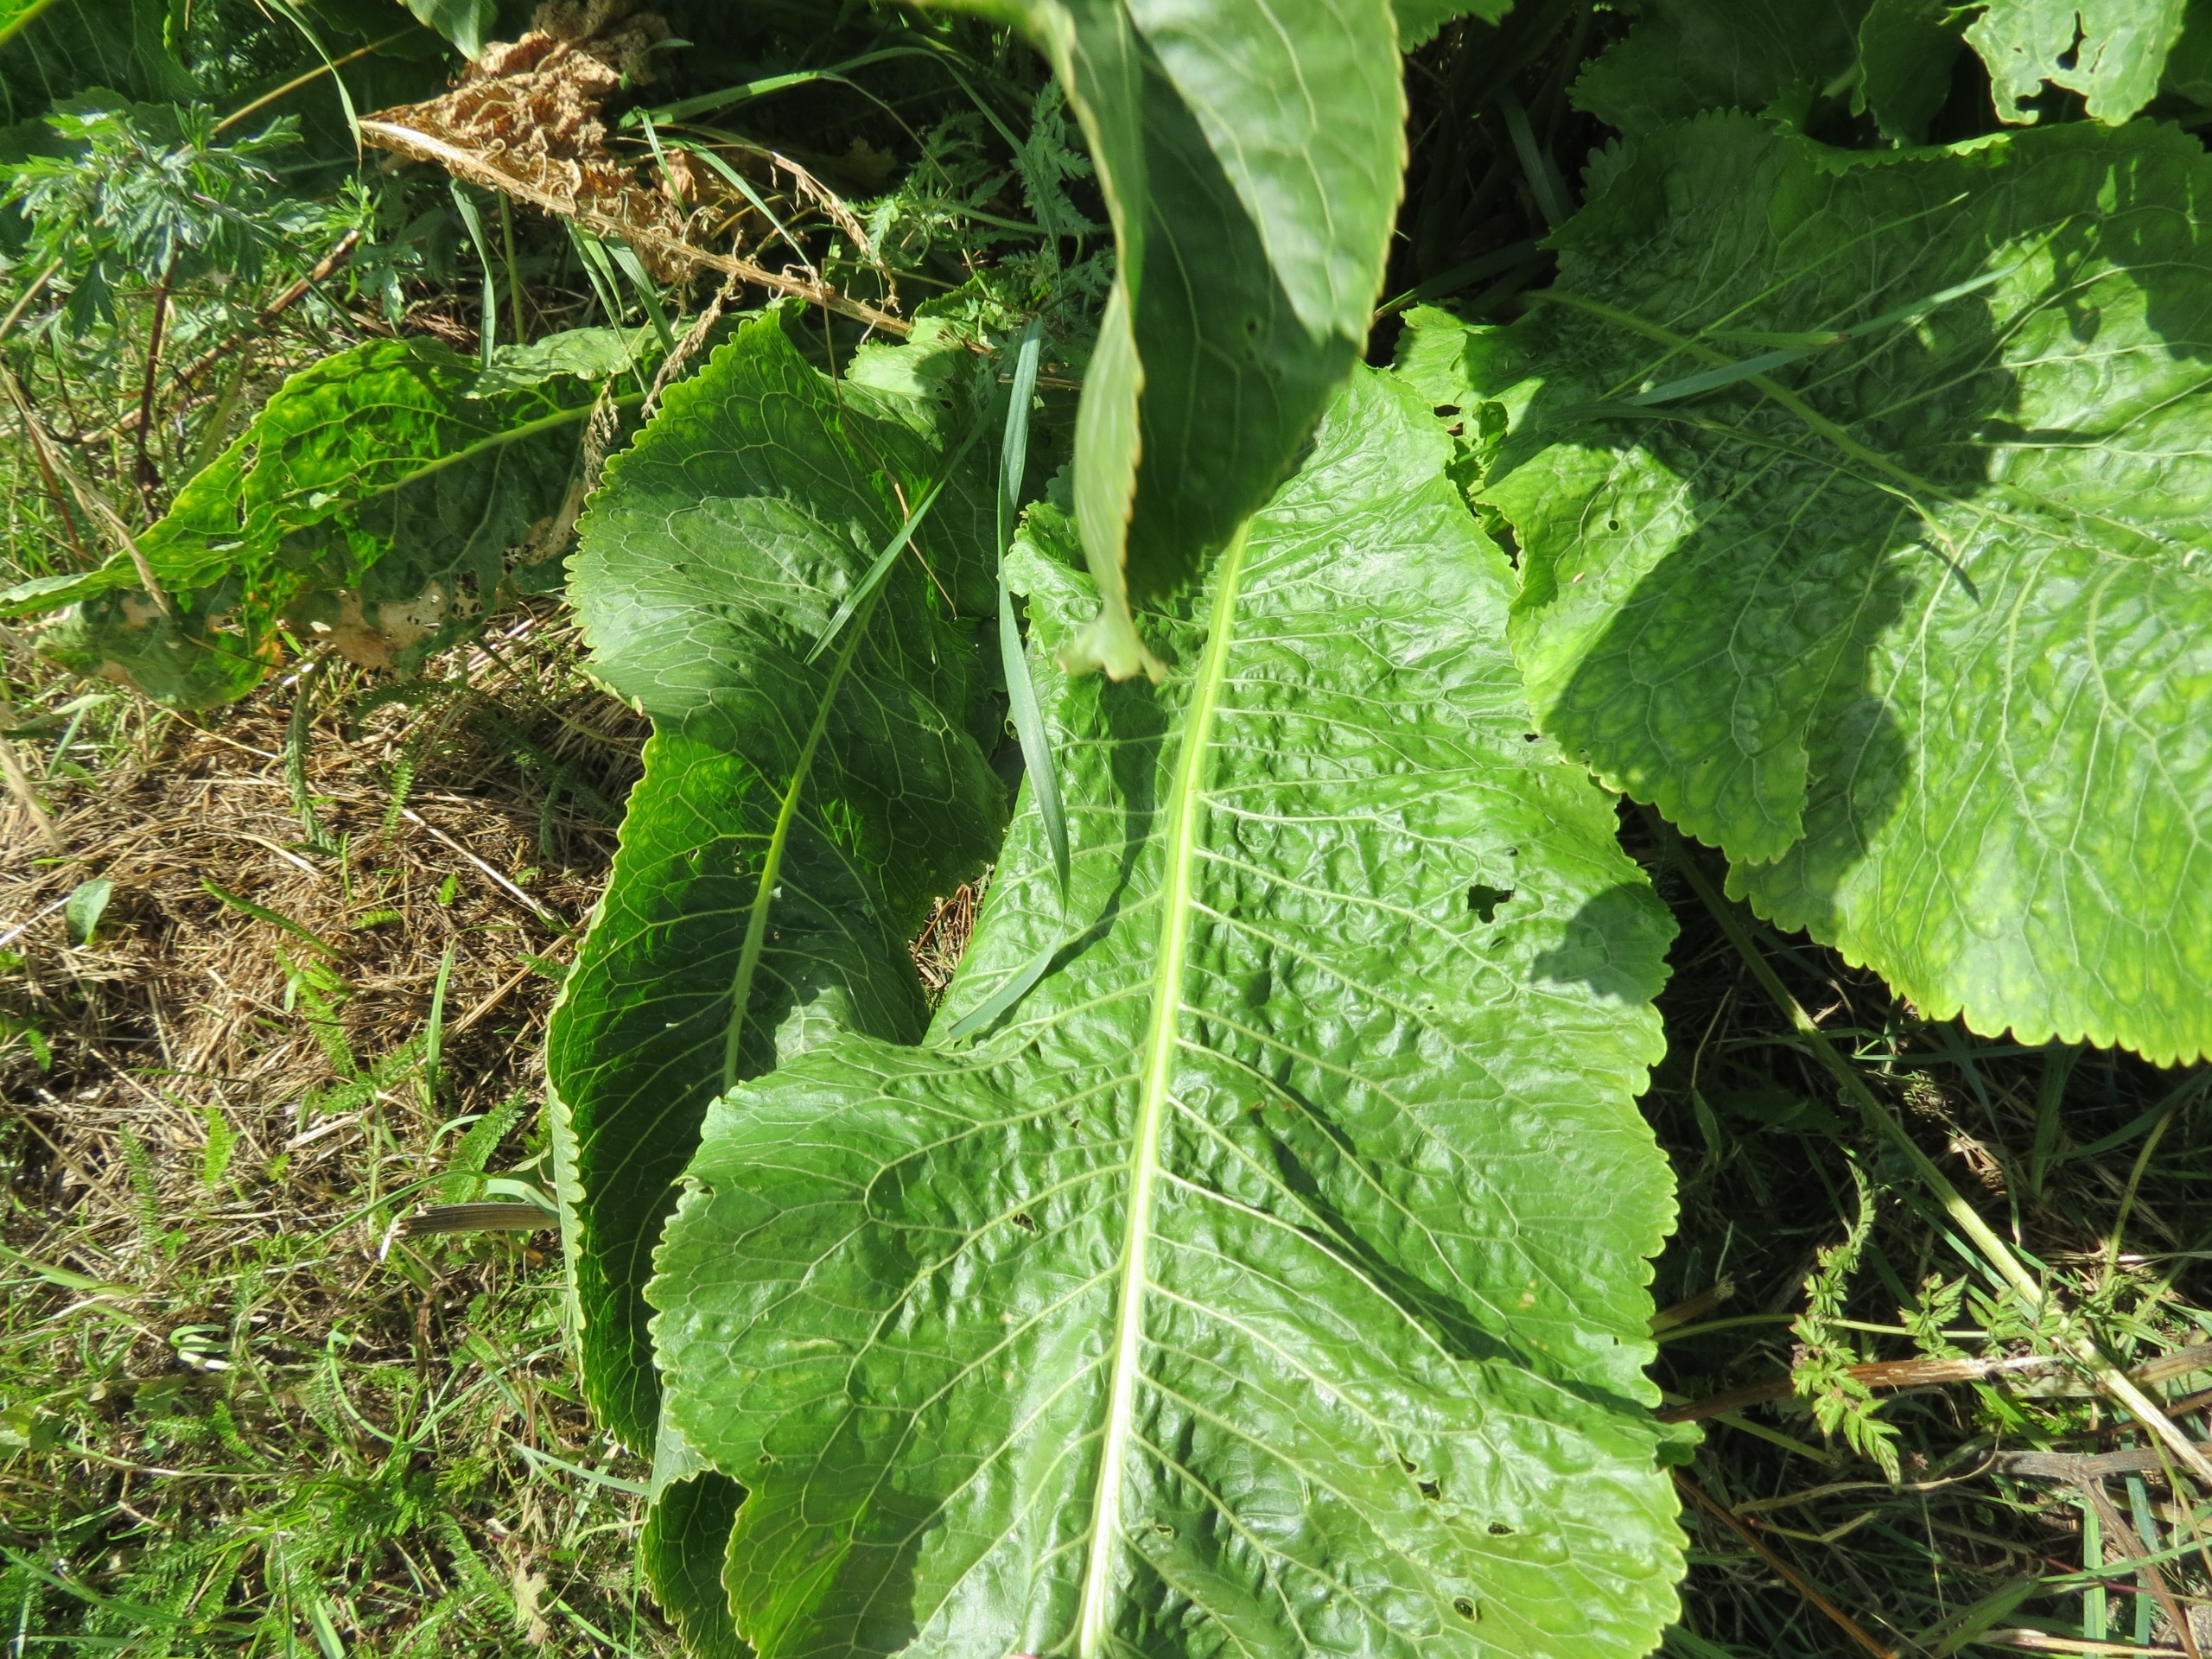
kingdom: Plantae
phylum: Tracheophyta
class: Magnoliopsida
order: Brassicales
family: Brassicaceae
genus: Armoracia
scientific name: Armoracia rusticana
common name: Peberrod
